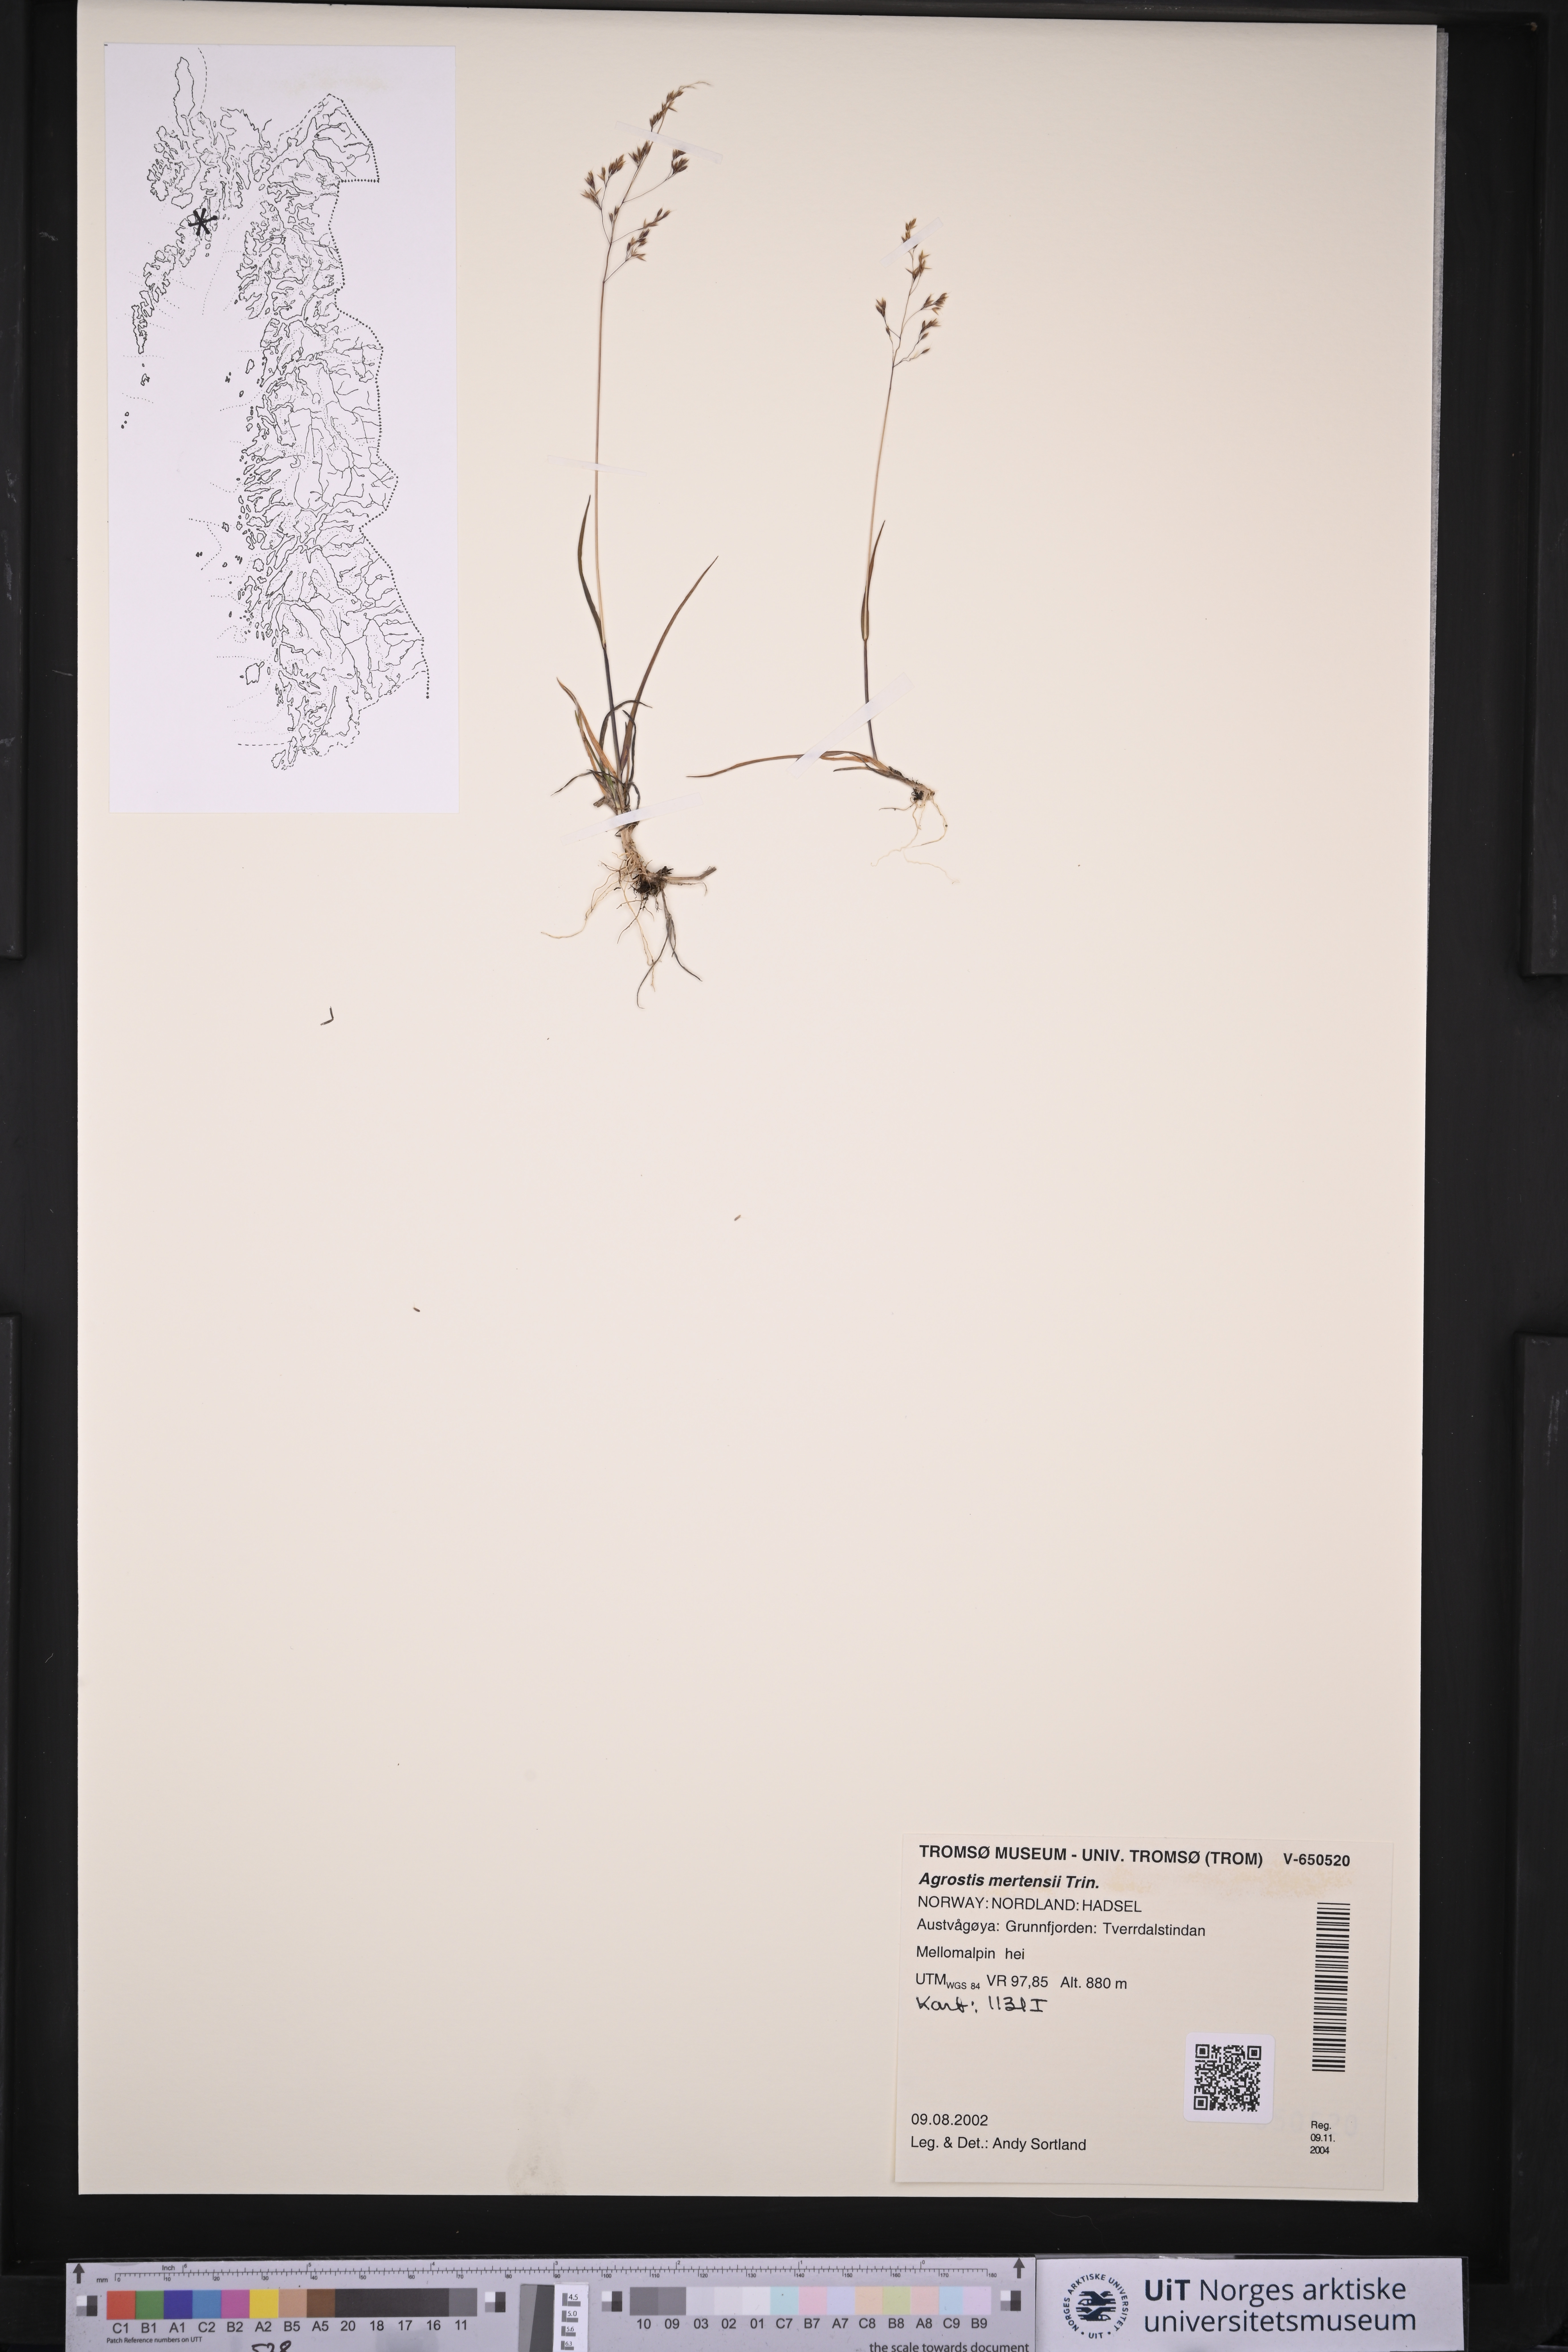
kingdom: Plantae
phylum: Tracheophyta
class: Liliopsida
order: Poales
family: Poaceae
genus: Agrostis
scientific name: Agrostis mertensii
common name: Northern bent
